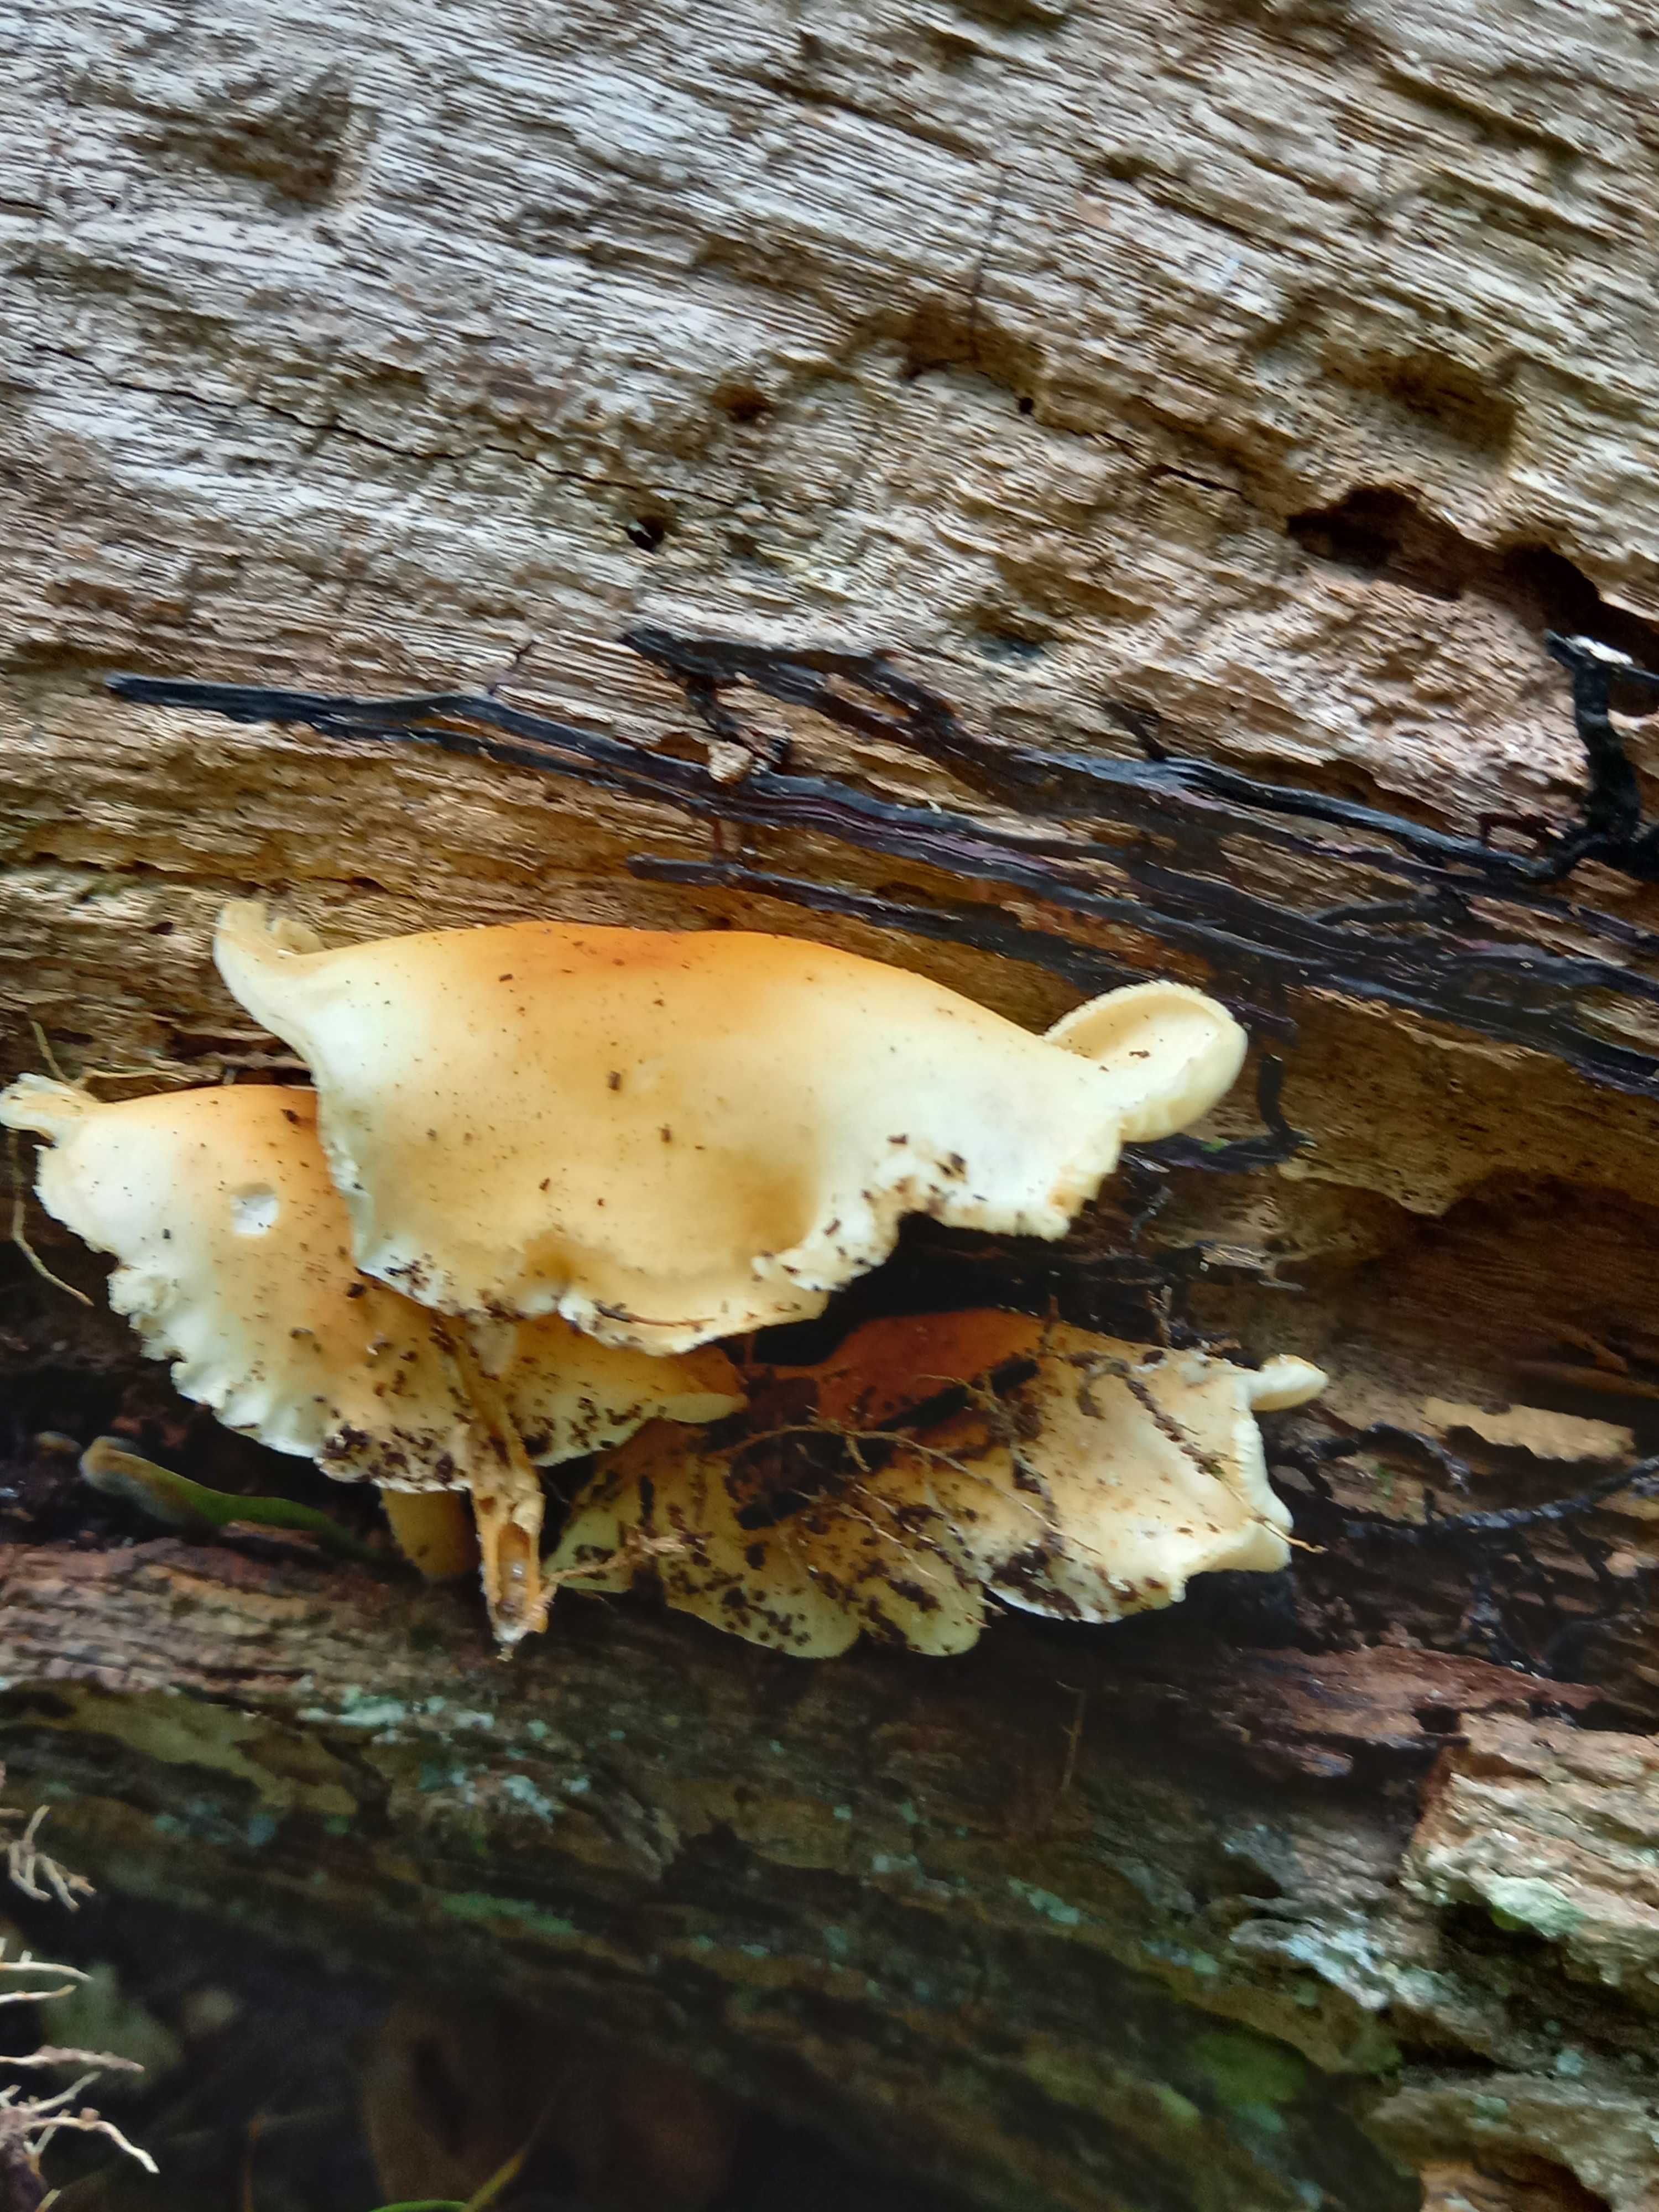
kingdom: Fungi
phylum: Basidiomycota
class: Agaricomycetes
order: Agaricales
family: Omphalotaceae
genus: Gymnopus
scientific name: Gymnopus
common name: fladhat
